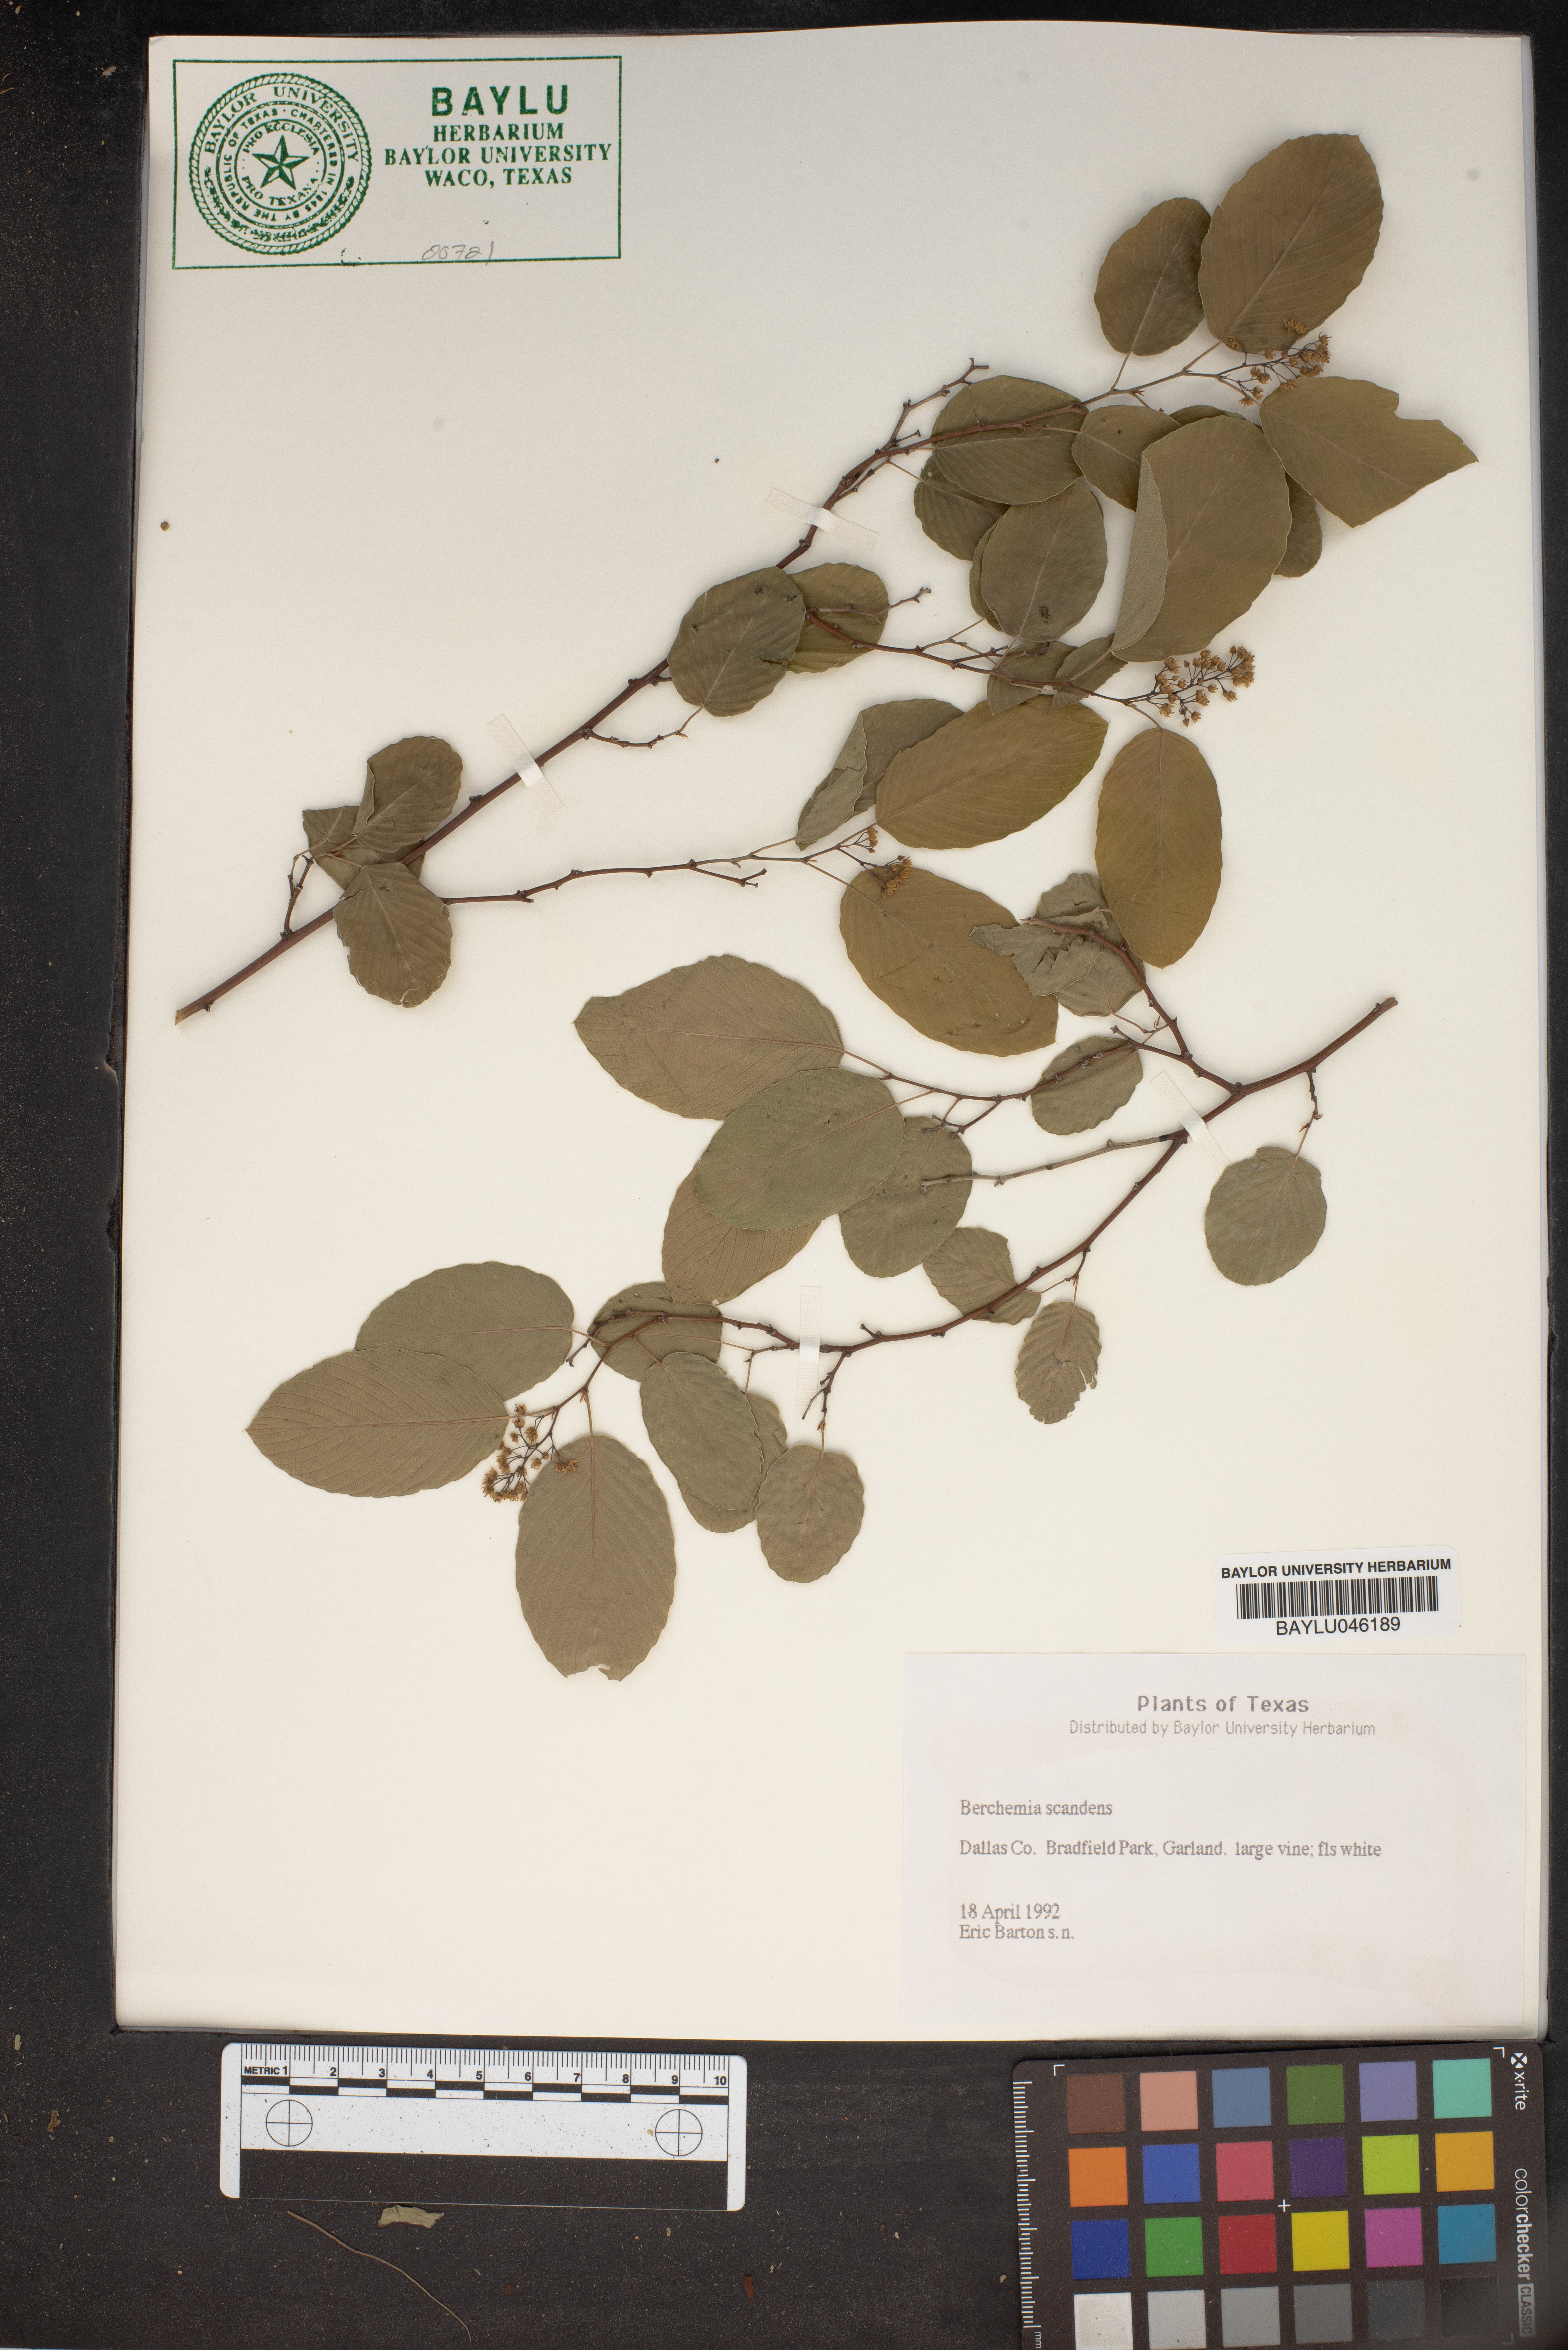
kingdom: Plantae
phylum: Tracheophyta
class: Magnoliopsida
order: Rosales
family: Rhamnaceae
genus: Berchemia
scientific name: Berchemia scandens
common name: Supplejack
